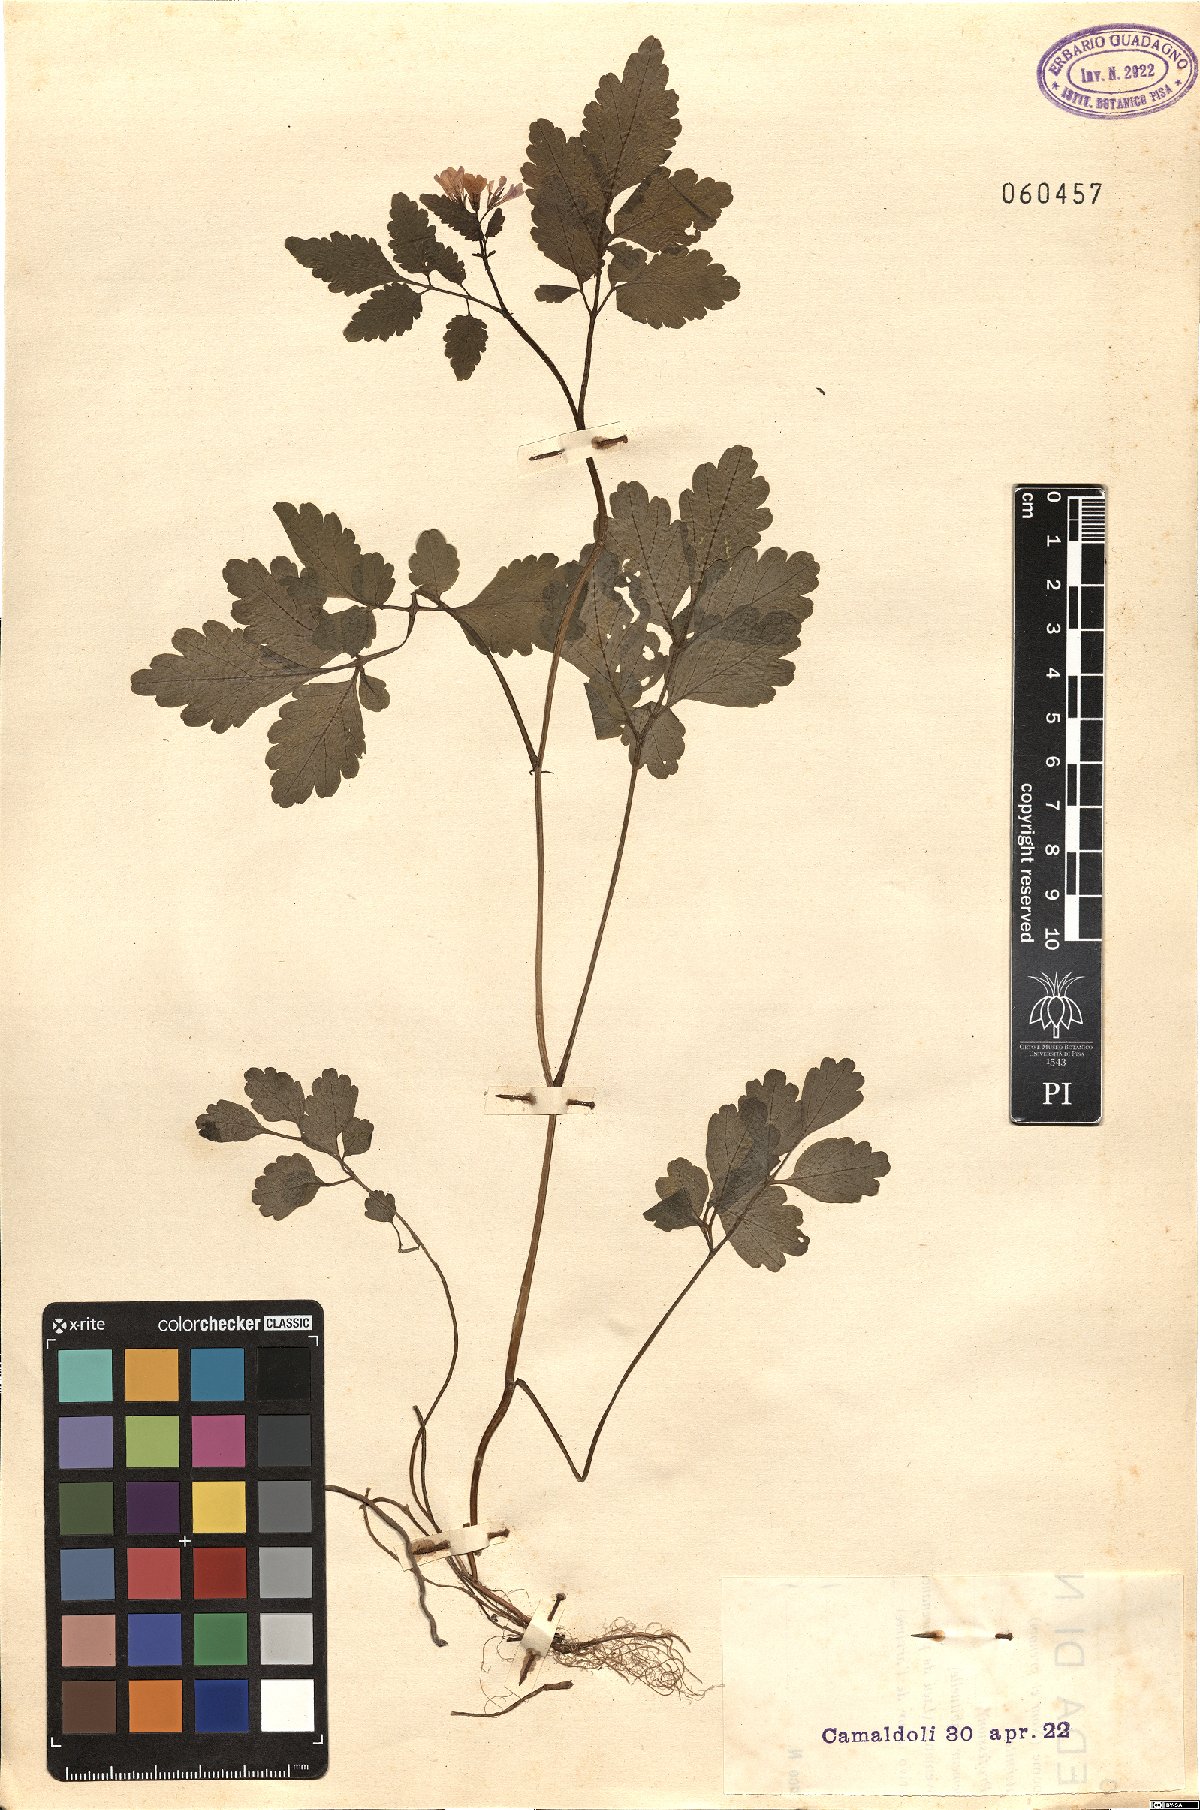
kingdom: Plantae
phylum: Tracheophyta
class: Magnoliopsida
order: Brassicales
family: Brassicaceae
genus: Cardamine
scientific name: Cardamine chelidonia
